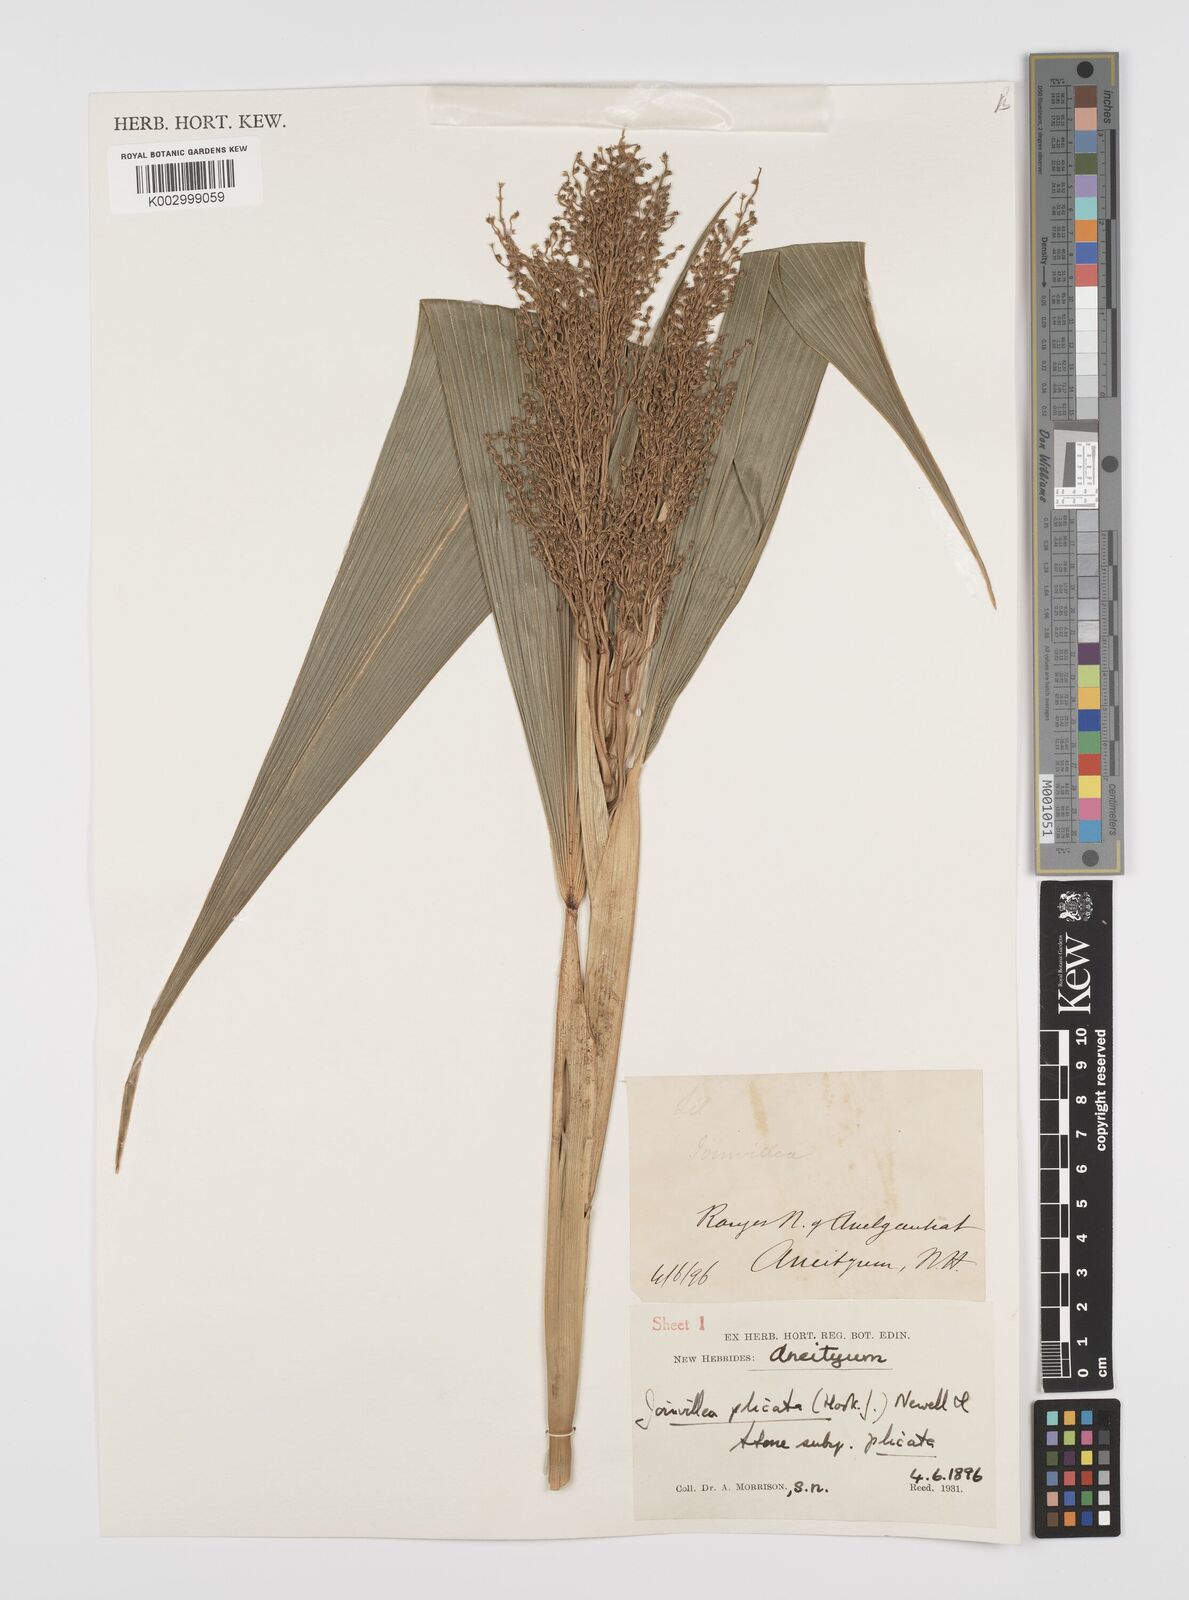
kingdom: Plantae
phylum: Tracheophyta
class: Liliopsida
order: Poales
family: Joinvilleaceae
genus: Joinvillea
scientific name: Joinvillea plicata
